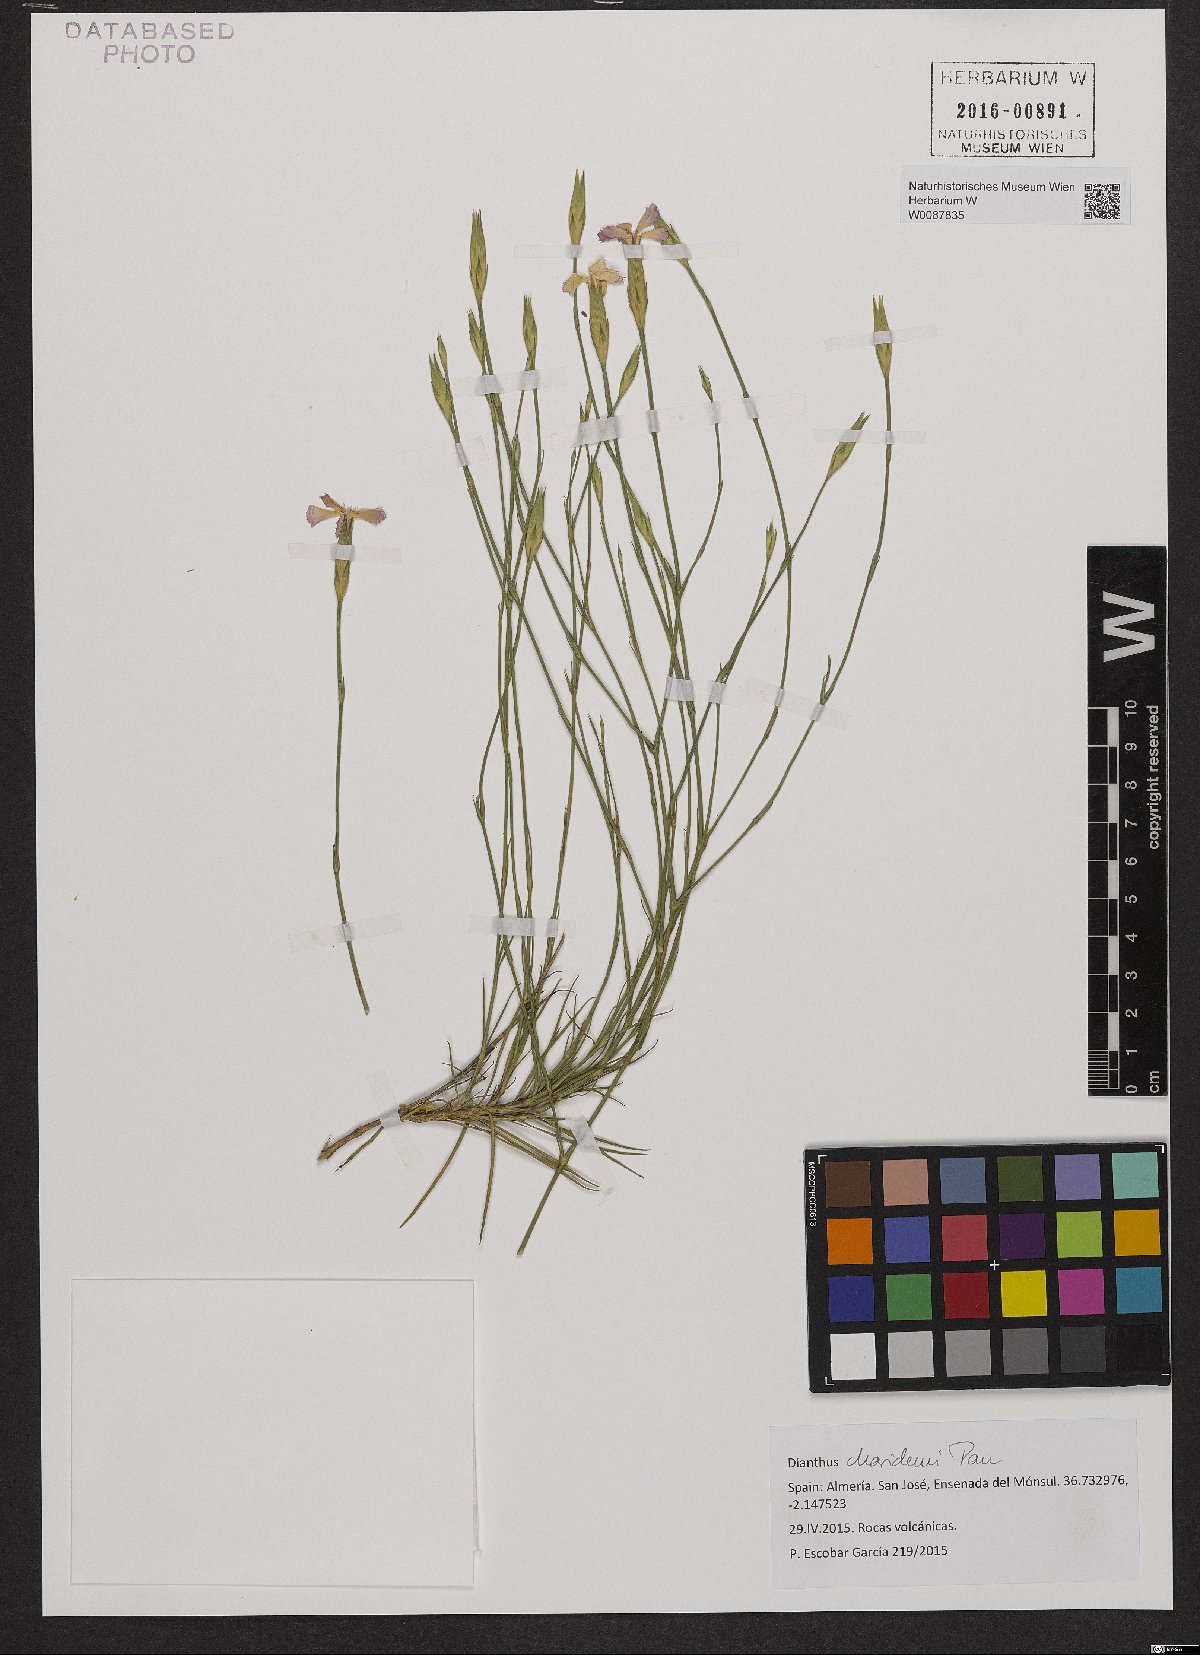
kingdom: Plantae
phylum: Tracheophyta
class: Magnoliopsida
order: Caryophyllales
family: Caryophyllaceae
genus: Dianthus
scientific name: Dianthus charidemi
